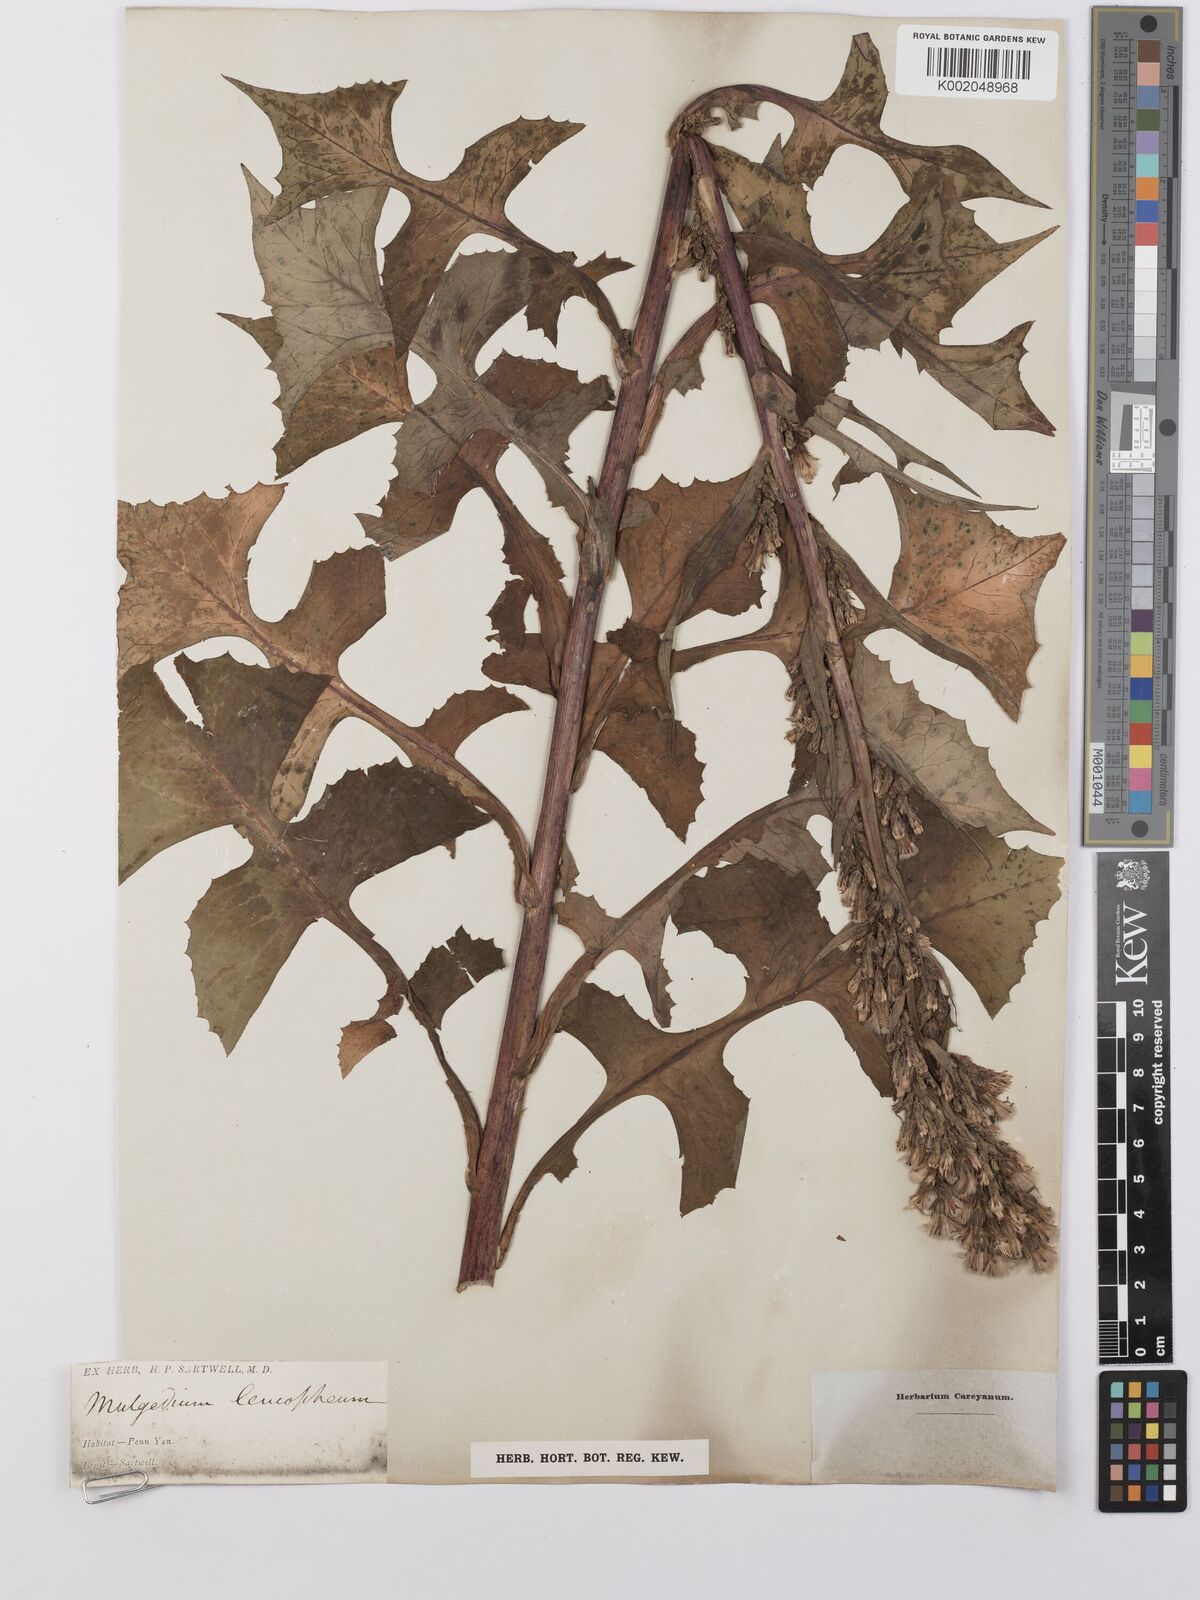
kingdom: Plantae
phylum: Tracheophyta
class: Magnoliopsida
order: Asterales
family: Asteraceae
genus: Lactuca
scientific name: Lactuca
